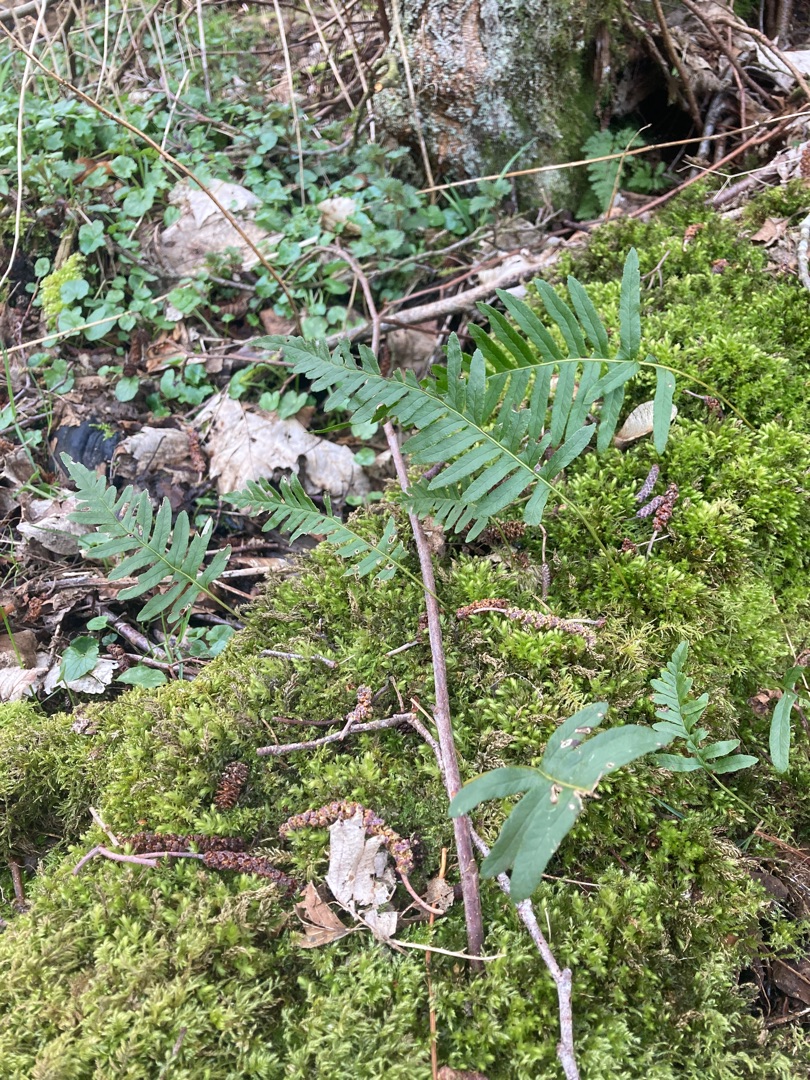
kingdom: Plantae
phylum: Tracheophyta
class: Polypodiopsida
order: Polypodiales
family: Polypodiaceae
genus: Polypodium
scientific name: Polypodium vulgare
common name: Almindelig engelsød
